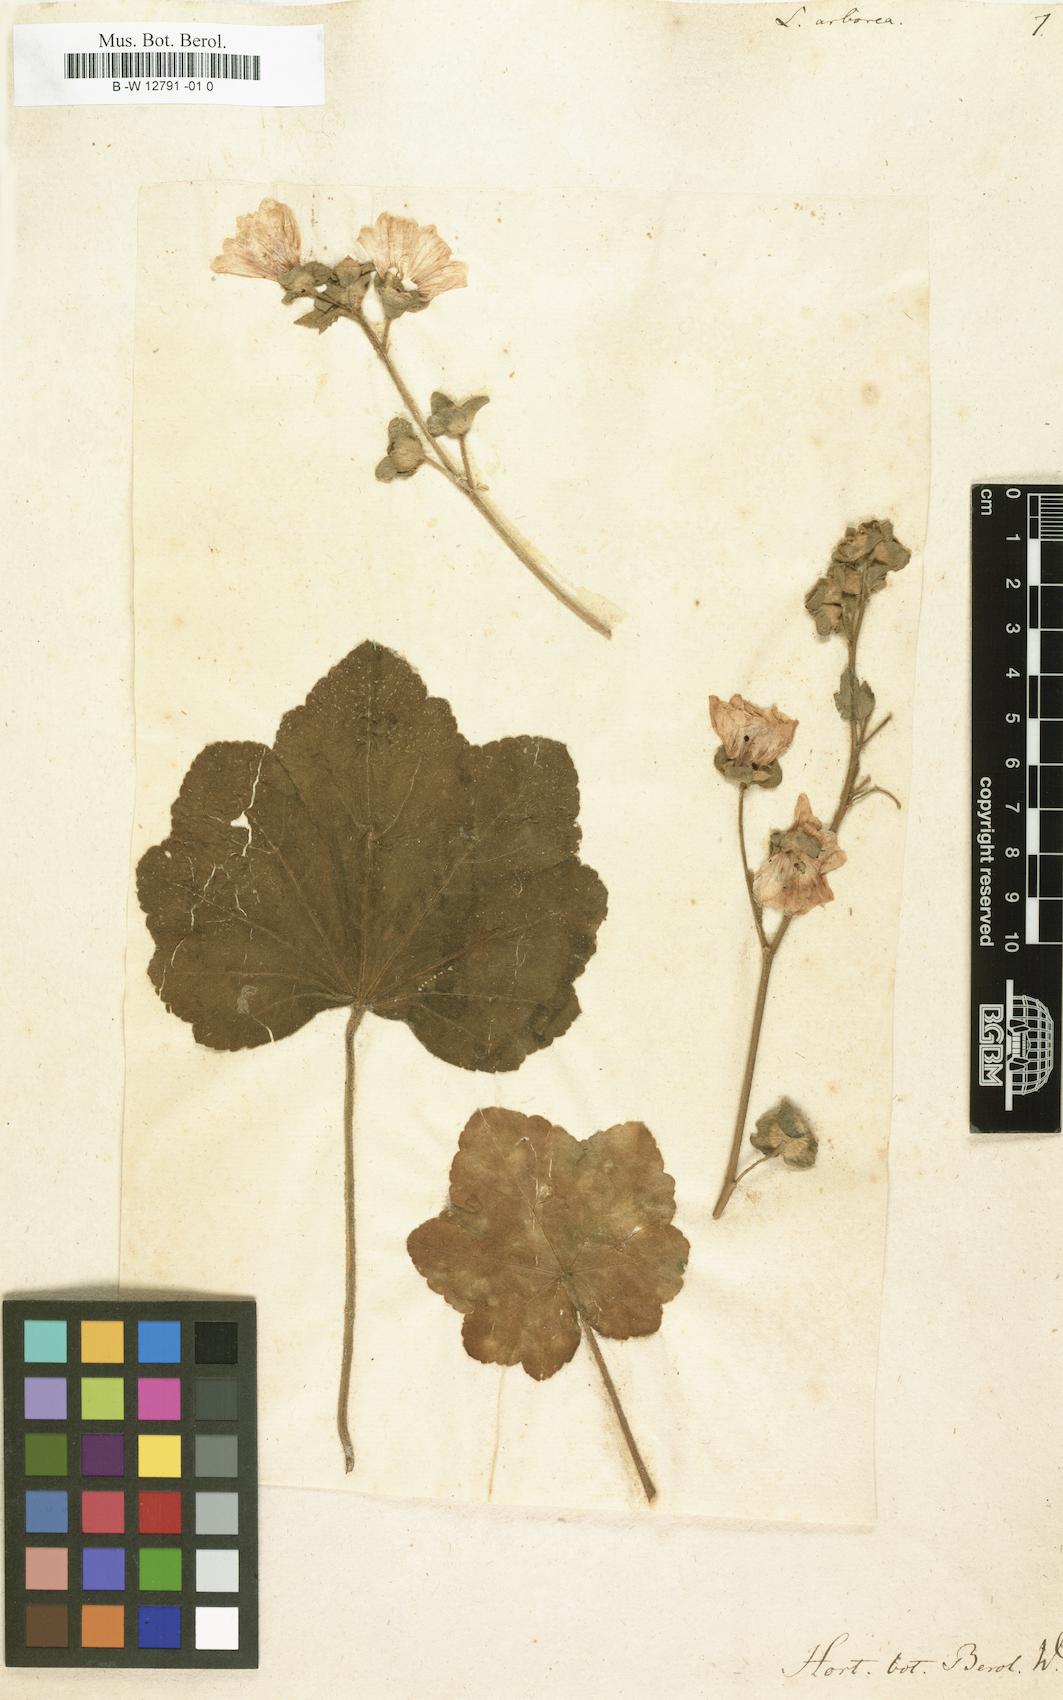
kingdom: Plantae
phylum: Tracheophyta
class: Magnoliopsida
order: Malvales
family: Malvaceae
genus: Malva
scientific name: Malva arborea
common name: Tree mallow
